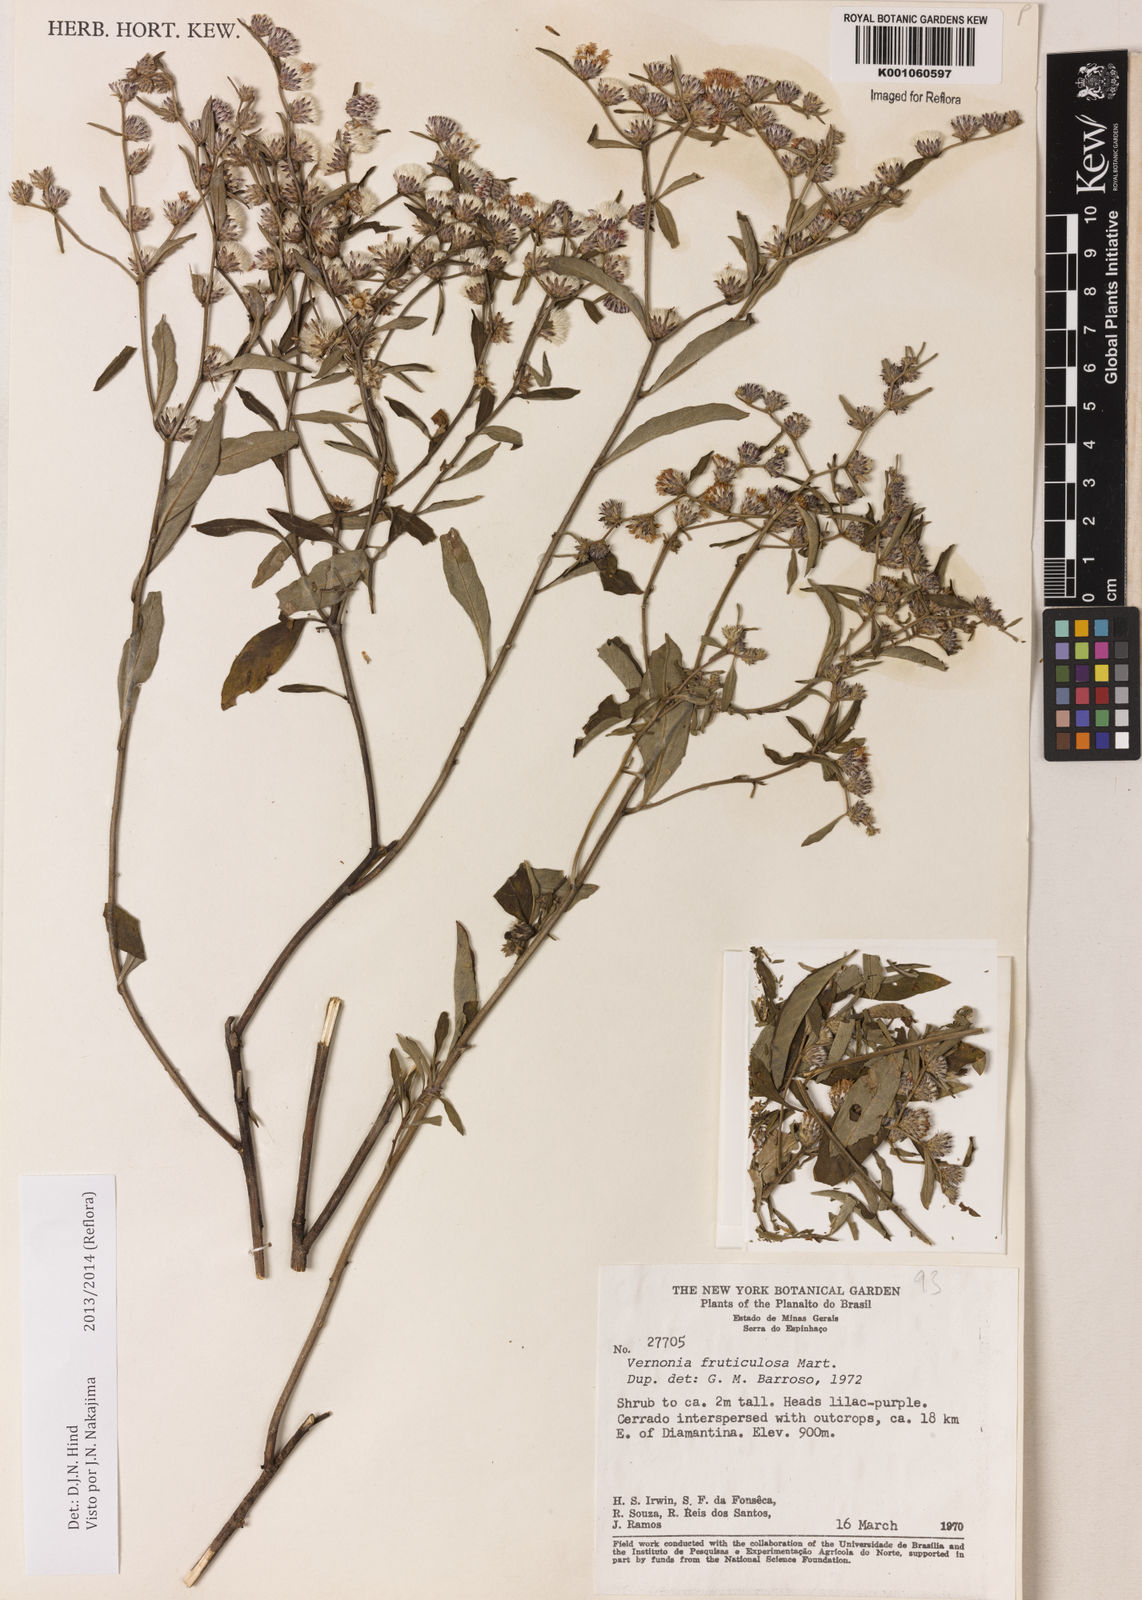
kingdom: Plantae
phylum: Tracheophyta
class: Magnoliopsida
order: Asterales
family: Asteraceae
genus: Lepidaploa
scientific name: Lepidaploa rufogrisea
